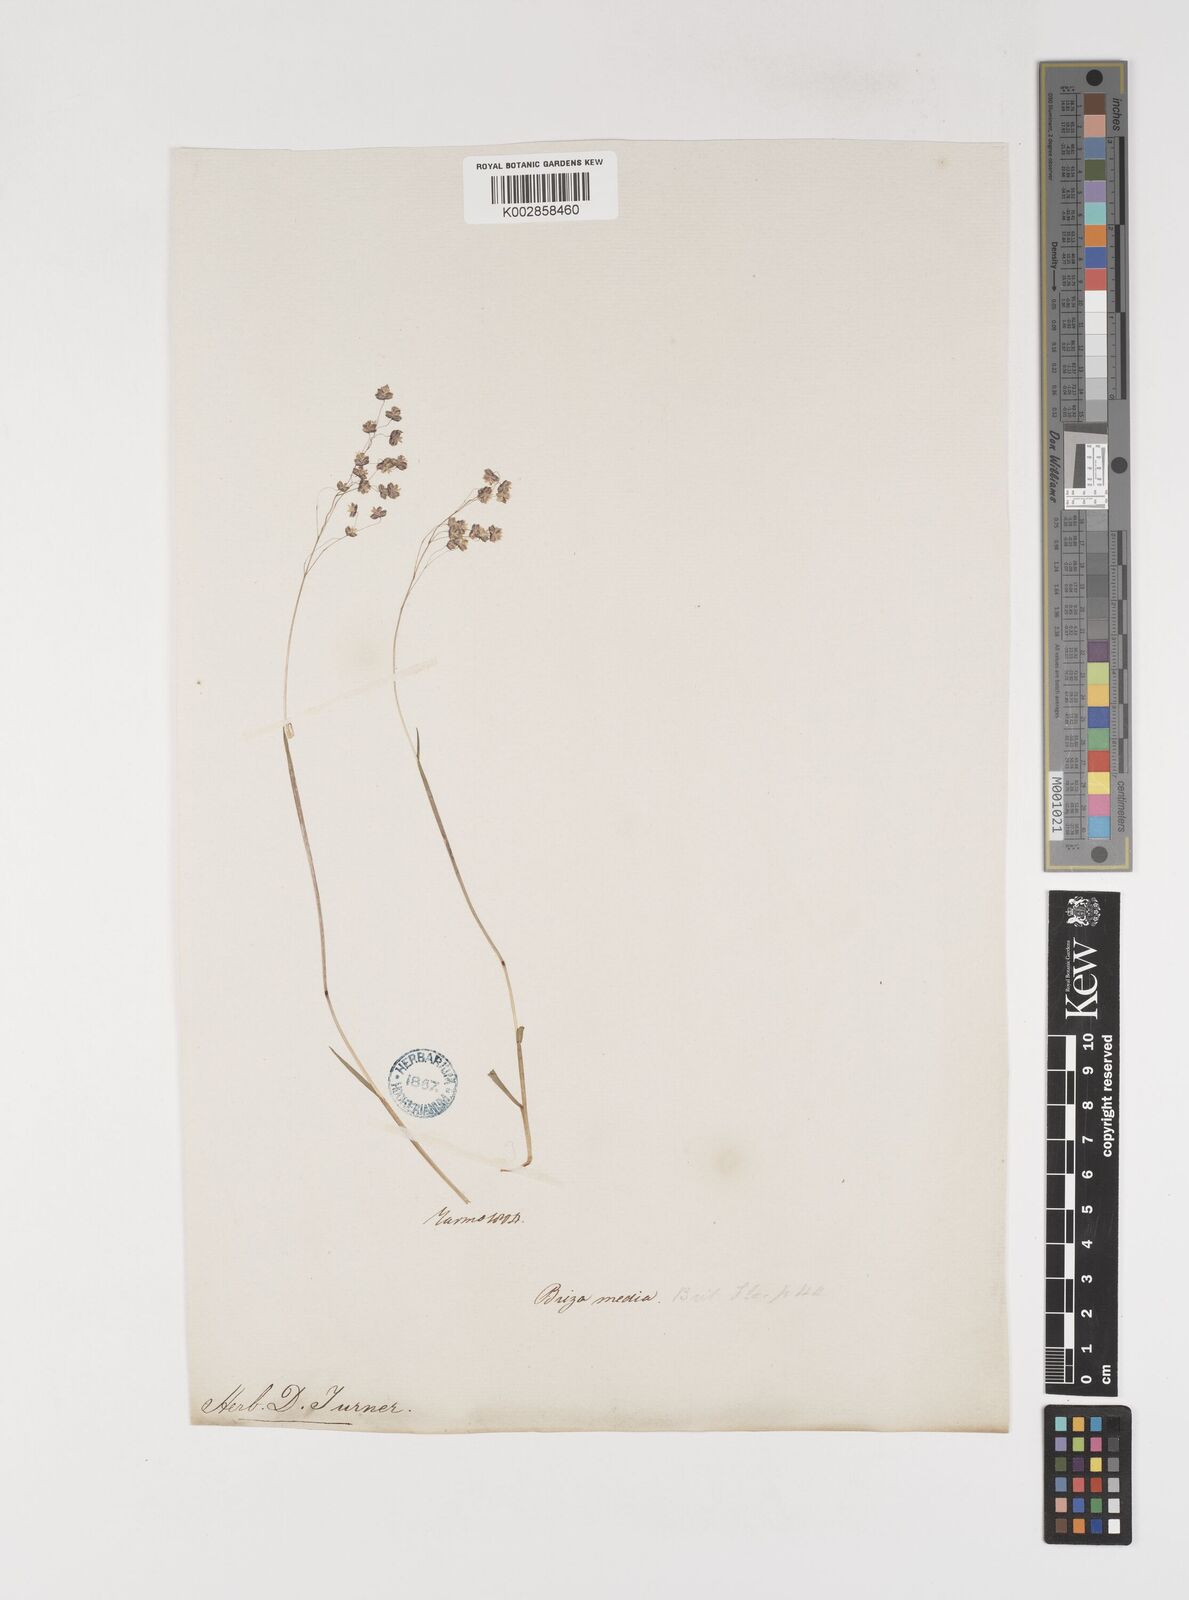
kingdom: Plantae
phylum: Tracheophyta
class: Liliopsida
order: Poales
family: Poaceae
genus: Briza
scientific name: Briza media
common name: Quaking grass
